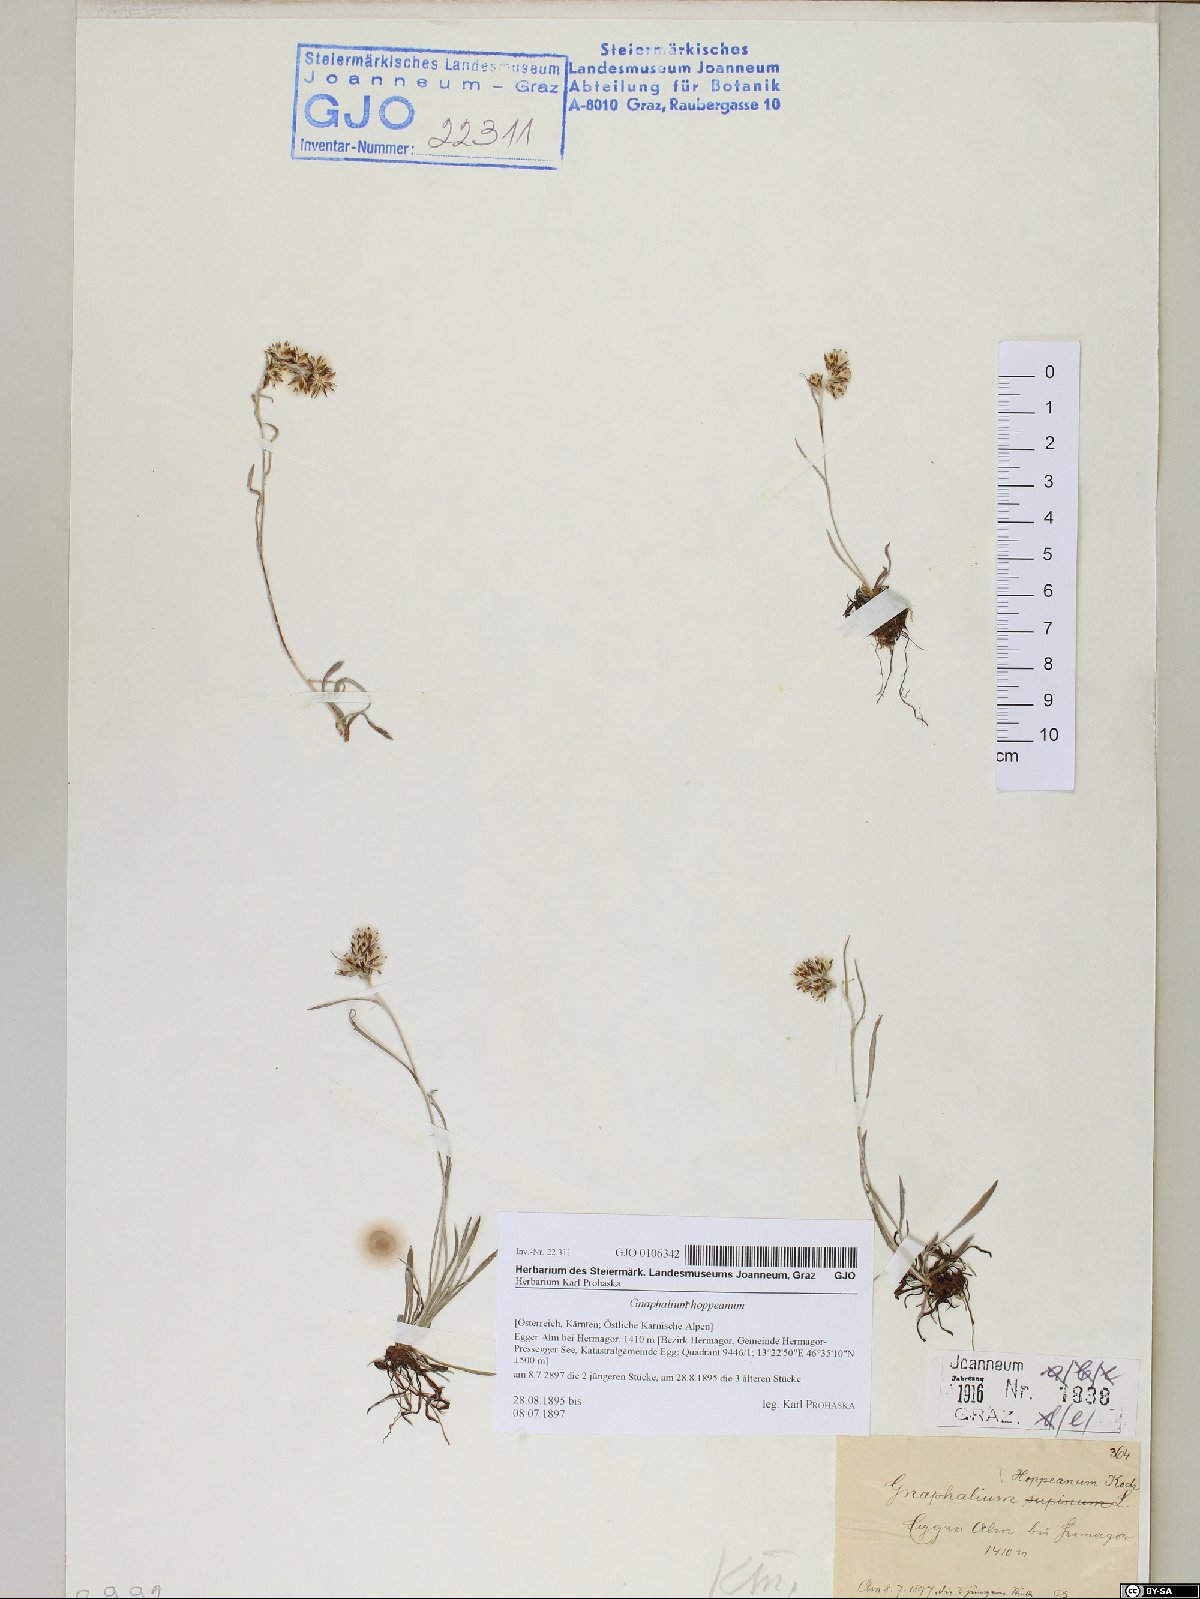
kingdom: Plantae
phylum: Tracheophyta
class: Magnoliopsida
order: Asterales
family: Asteraceae
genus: Omalotheca
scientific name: Omalotheca hoppeana
